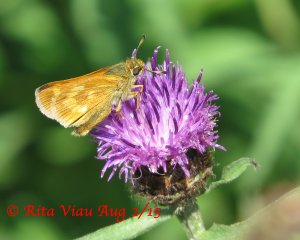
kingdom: Animalia
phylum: Arthropoda
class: Insecta
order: Lepidoptera
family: Hesperiidae
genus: Polites
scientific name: Polites
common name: Long Dash Skipper
